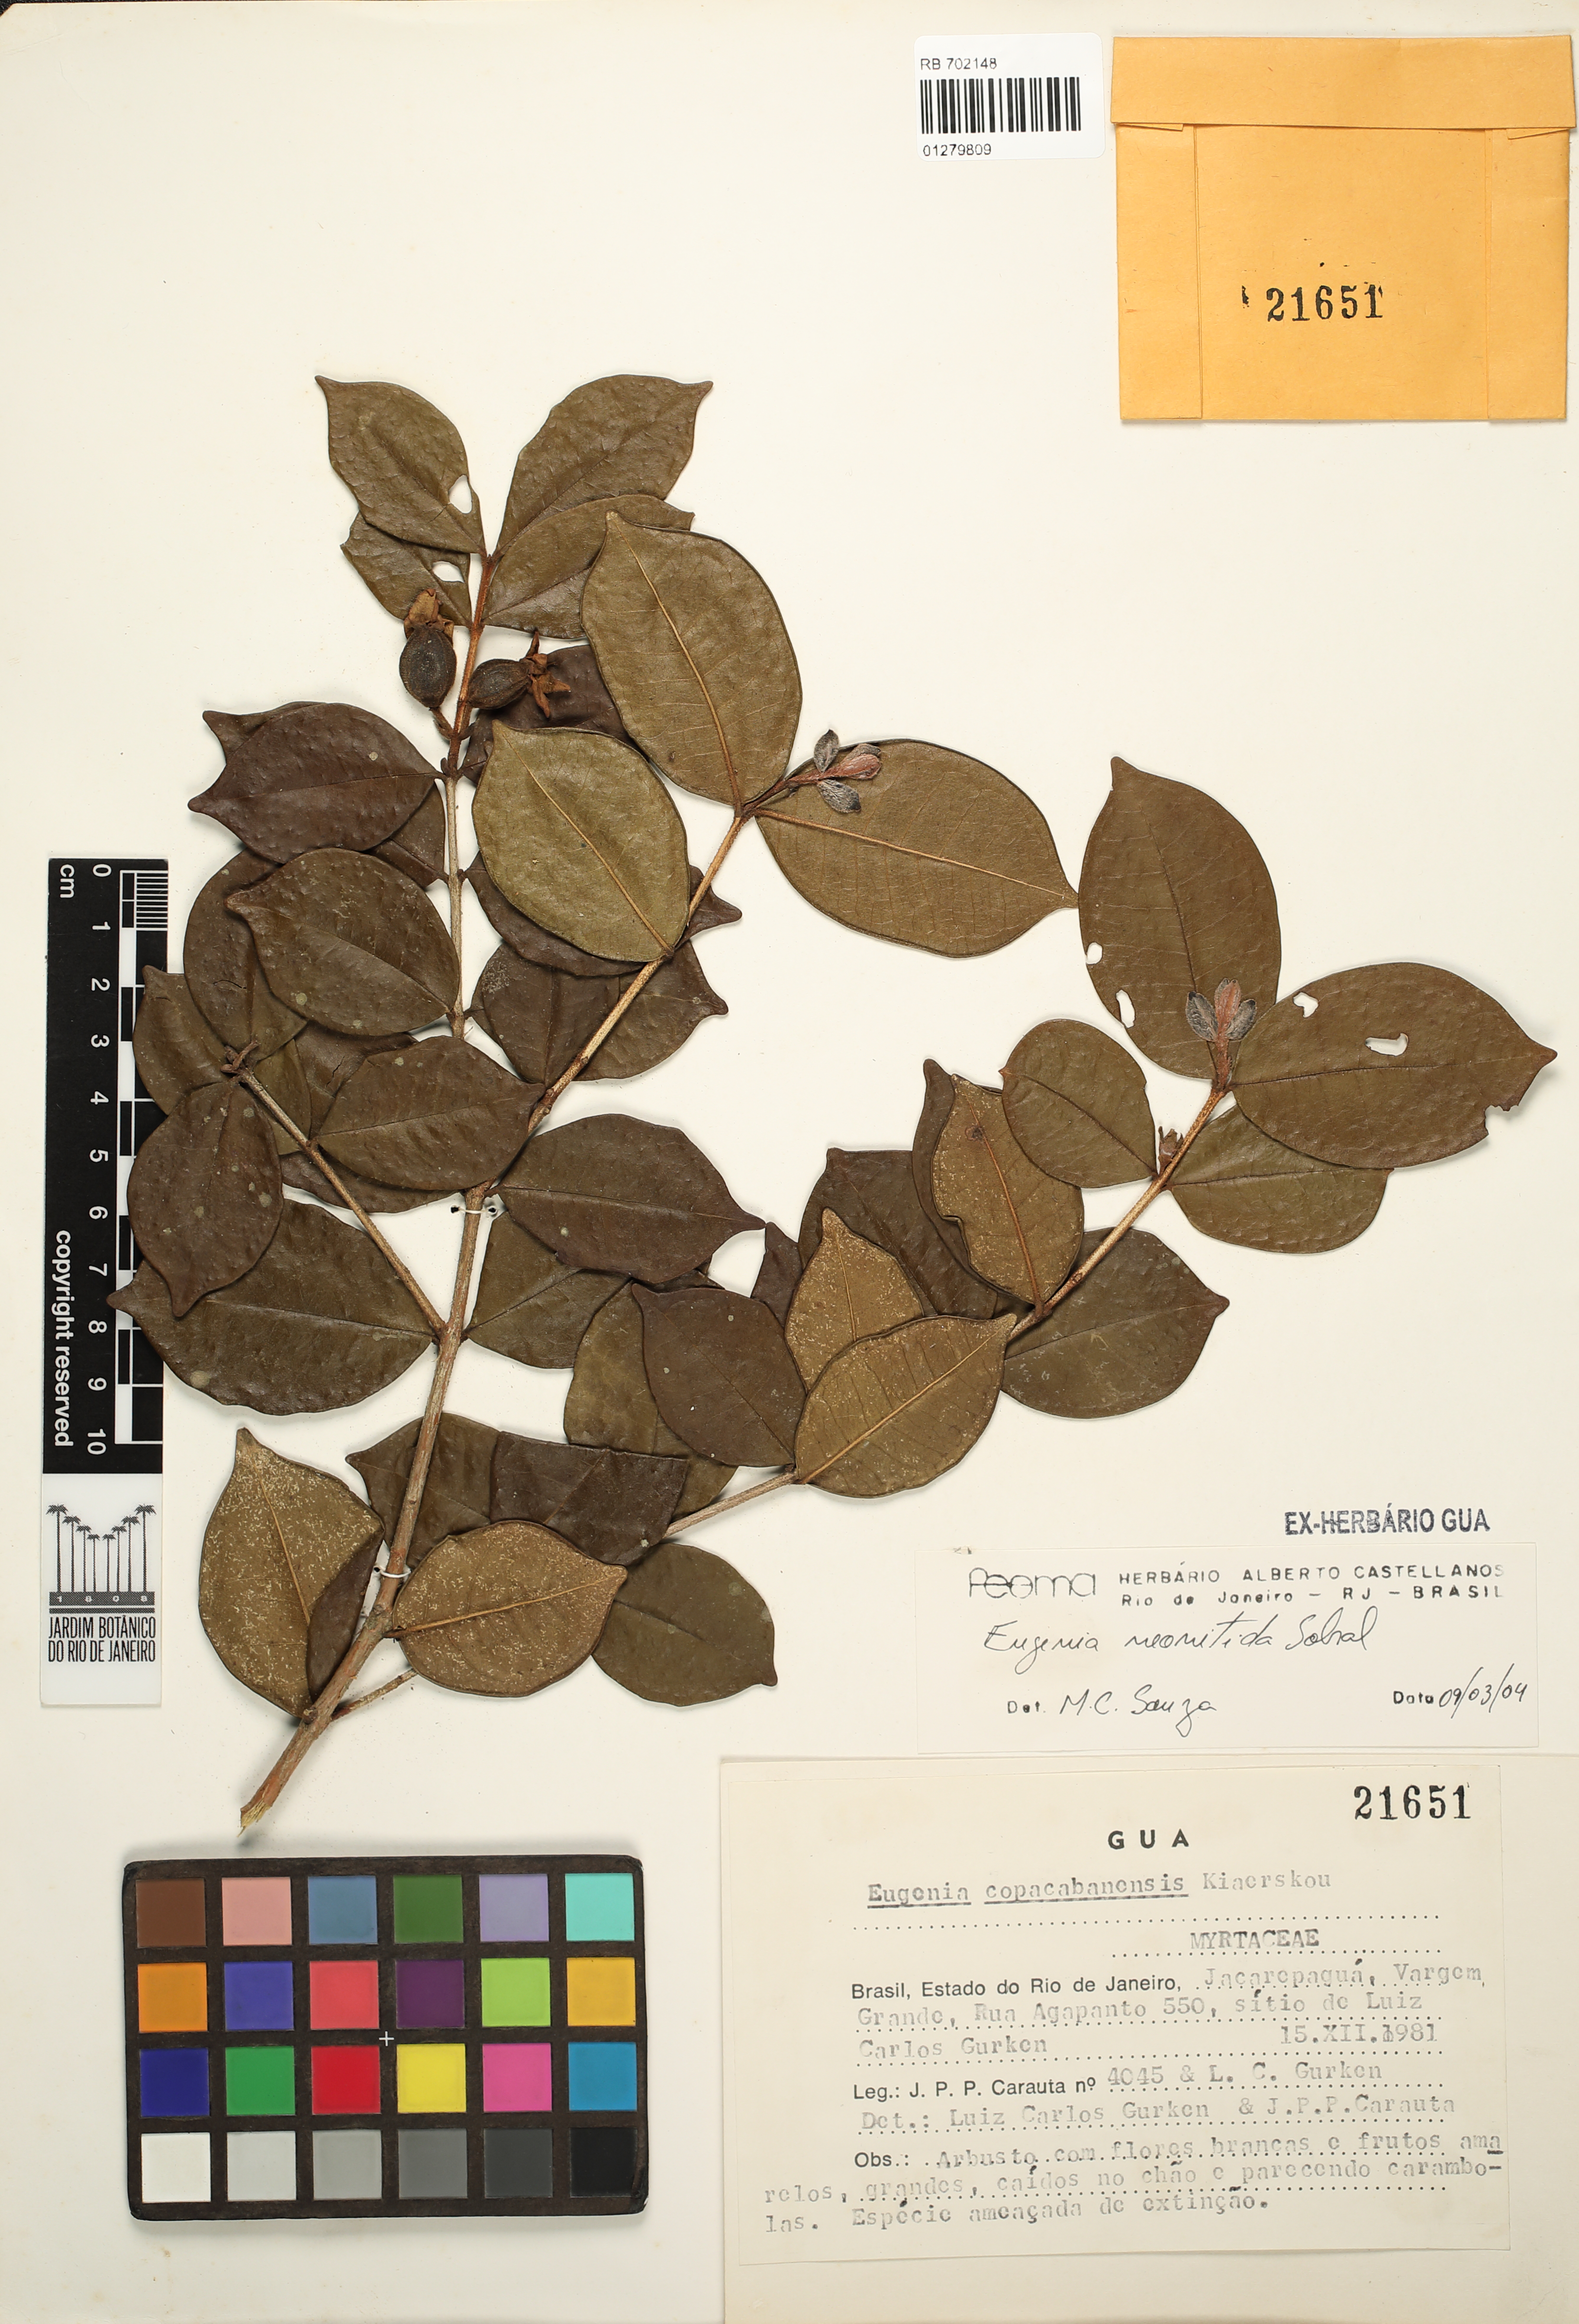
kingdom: Plantae
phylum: Tracheophyta
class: Magnoliopsida
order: Myrtales
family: Myrtaceae
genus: Eugenia
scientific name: Eugenia selloi
